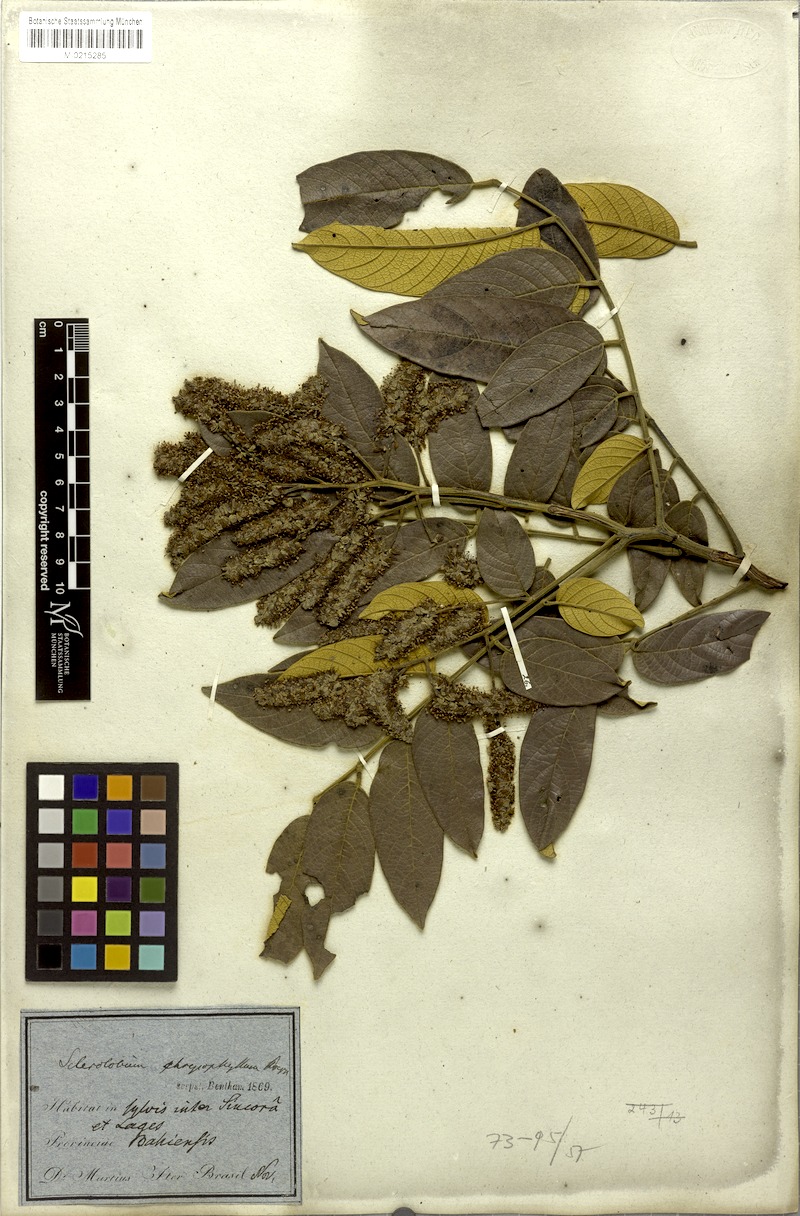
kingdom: Plantae
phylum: Tracheophyta
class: Magnoliopsida
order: Fabales
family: Fabaceae
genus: Tachigali
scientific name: Tachigali rugosa
